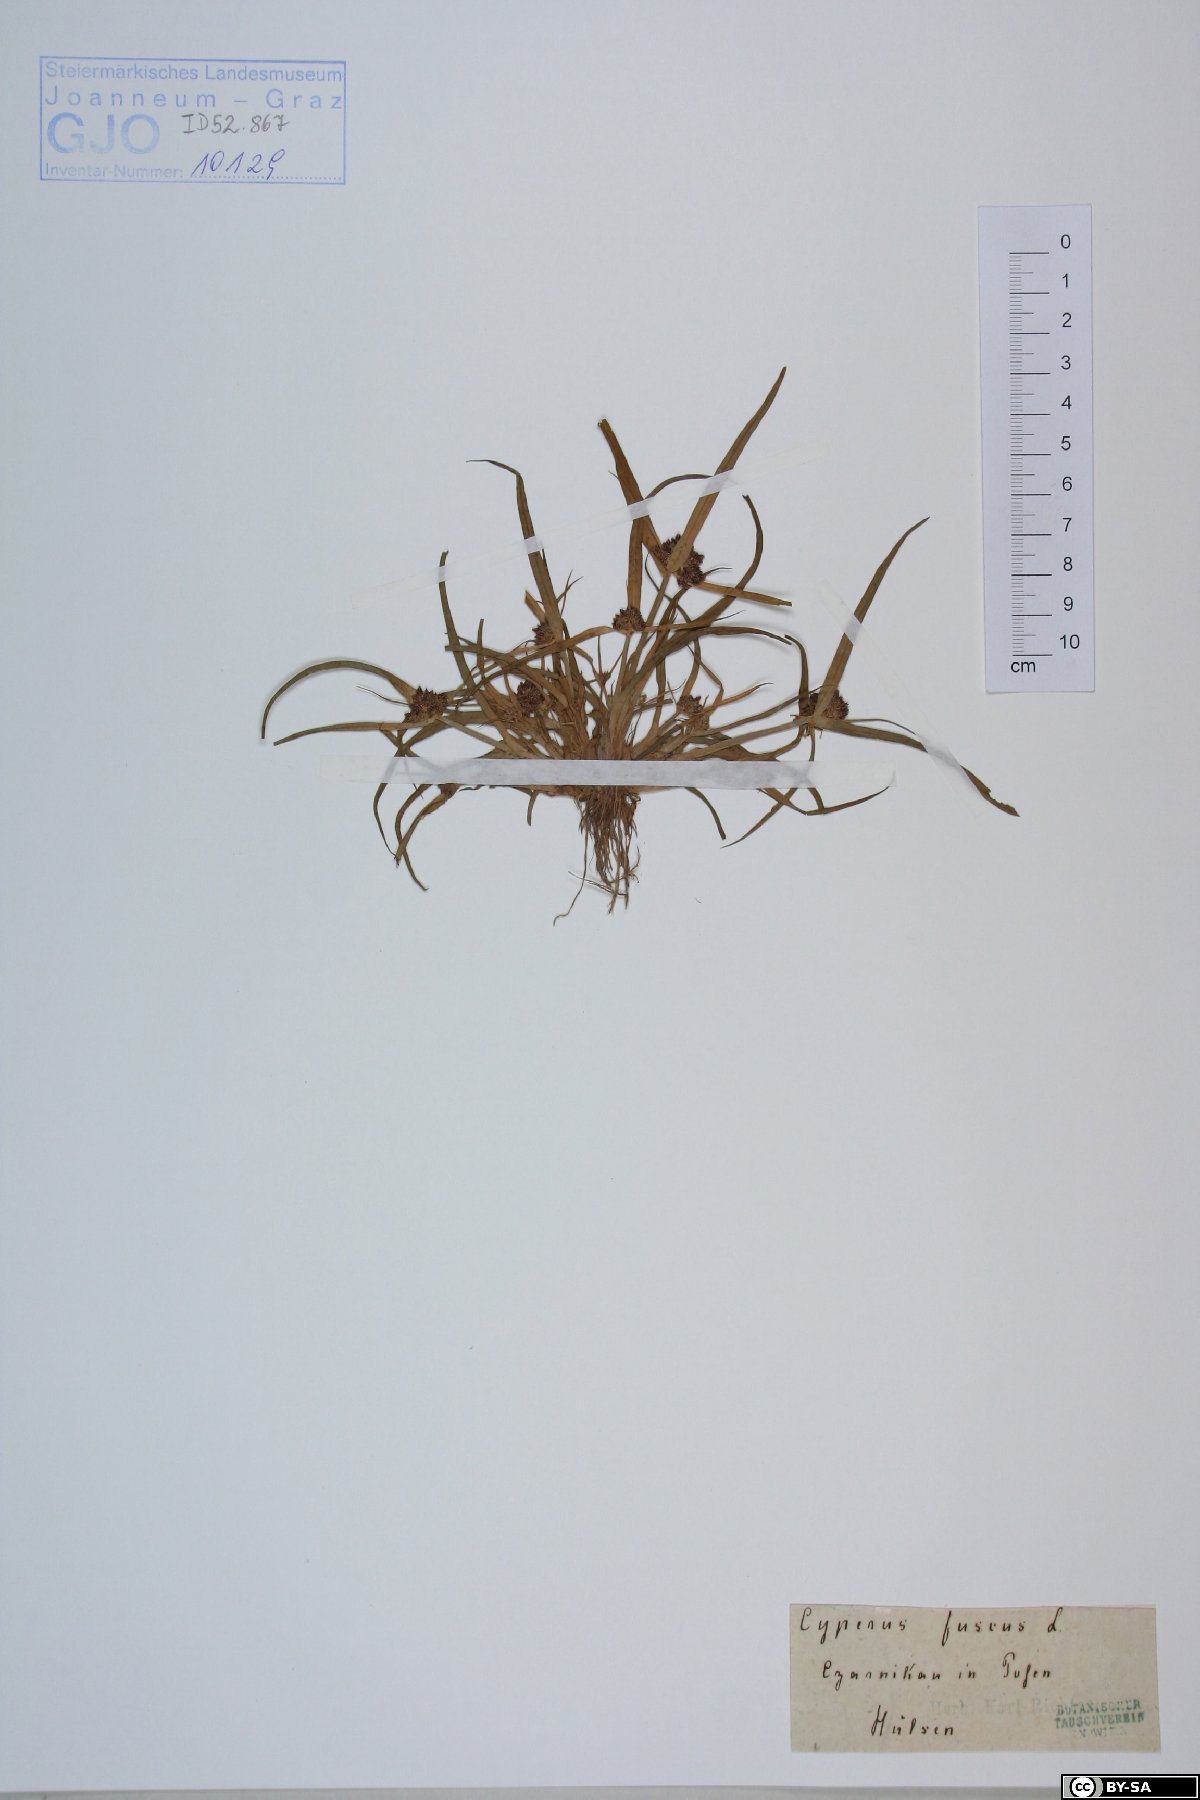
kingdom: Plantae
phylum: Tracheophyta
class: Liliopsida
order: Poales
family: Cyperaceae
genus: Cyperus
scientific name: Cyperus fuscus
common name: Brown galingale
